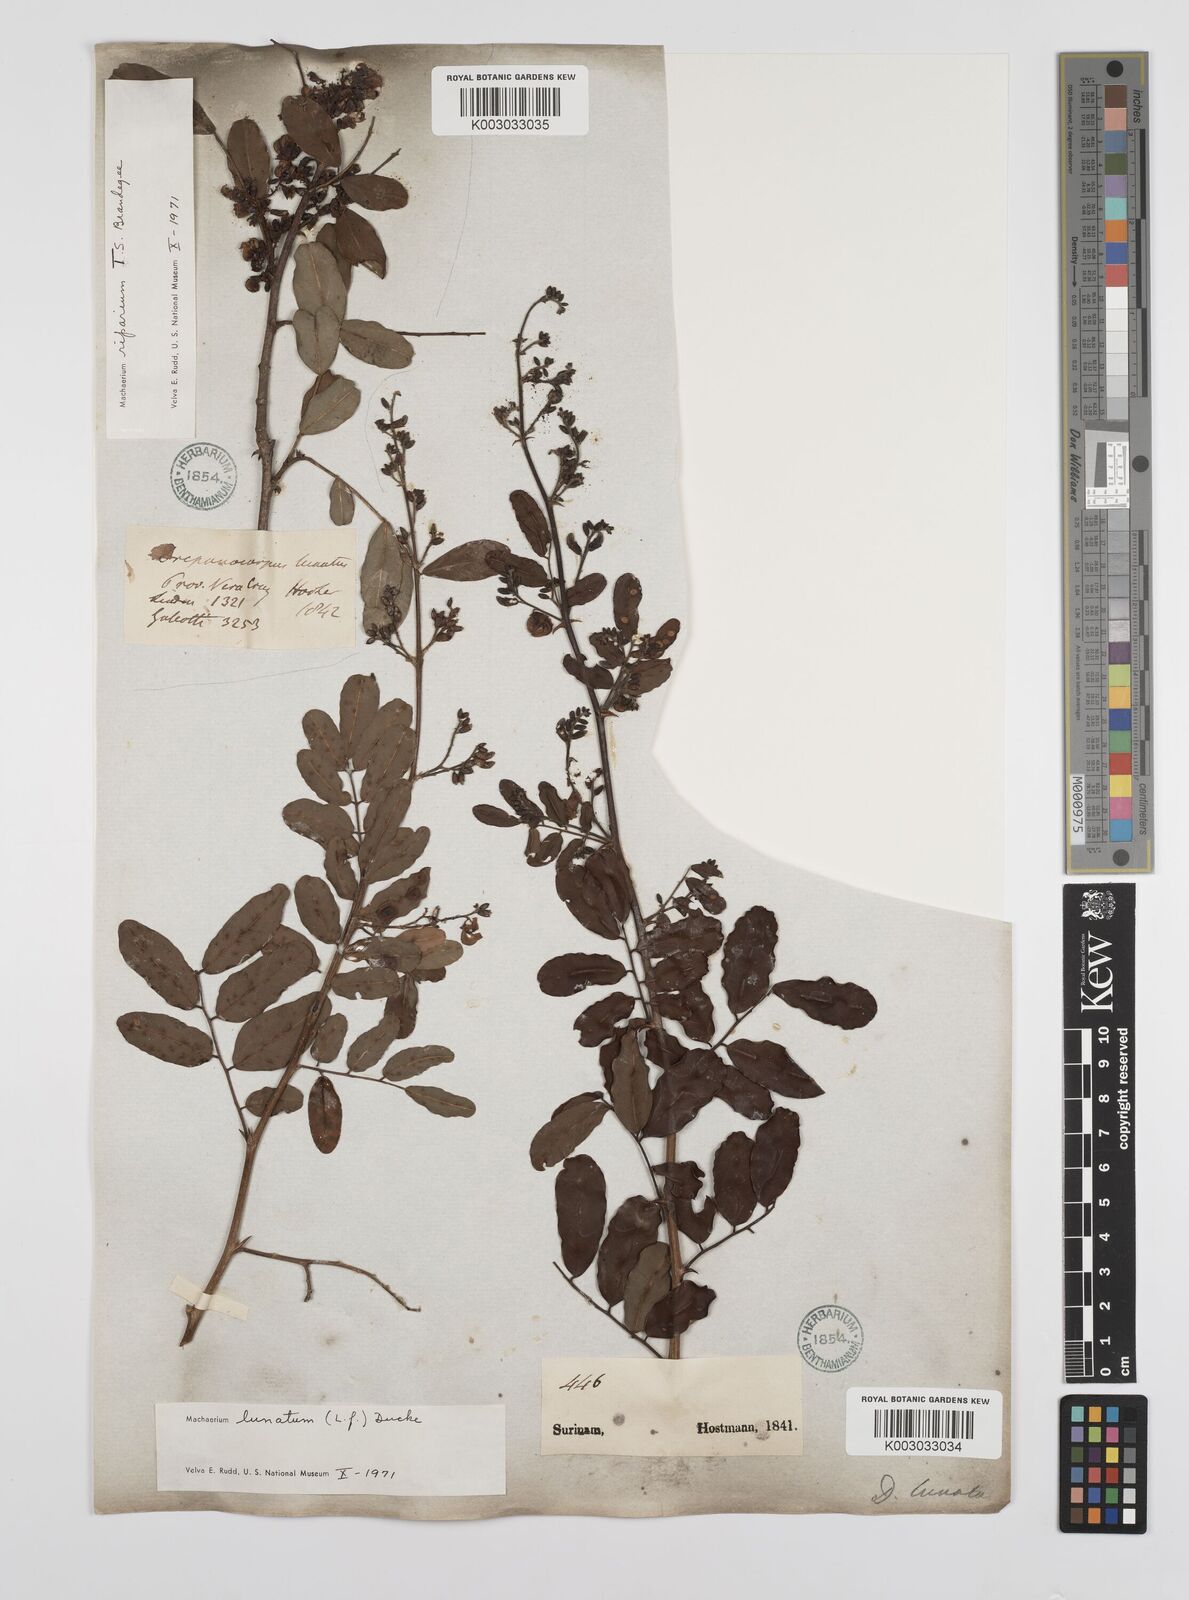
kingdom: Plantae
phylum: Tracheophyta
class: Magnoliopsida
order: Fabales
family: Fabaceae
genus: Machaerium
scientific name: Machaerium lunatum
